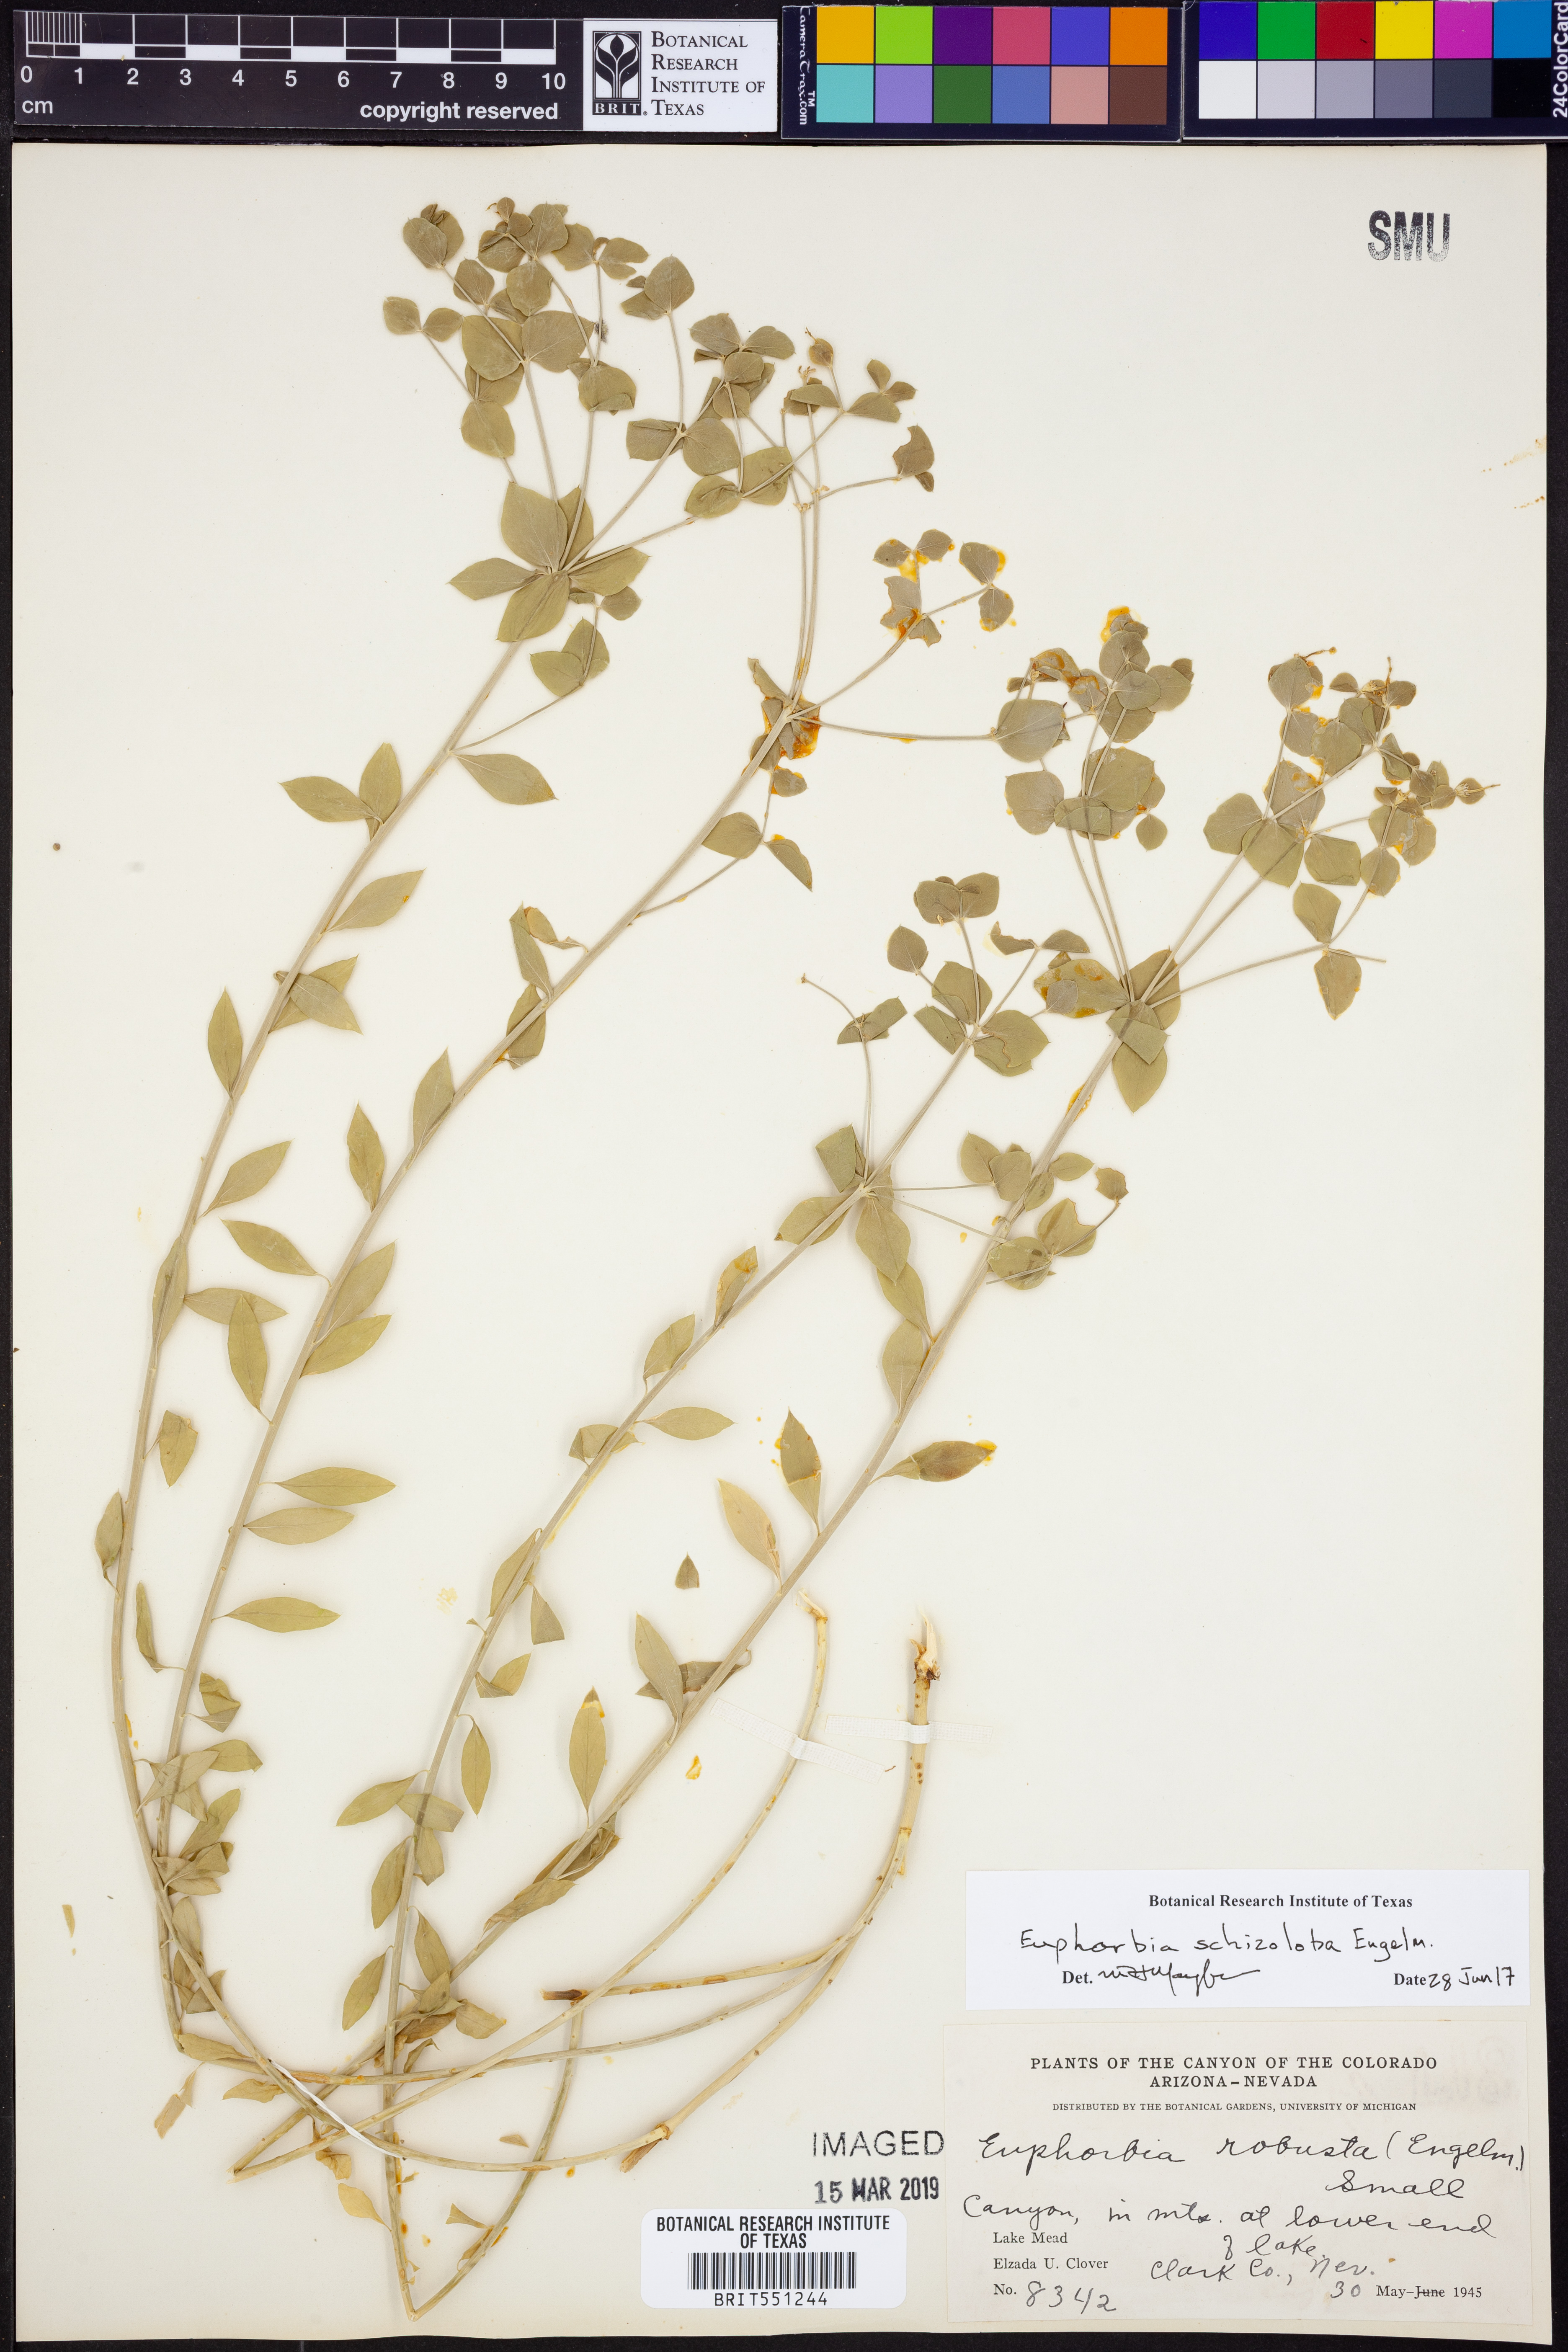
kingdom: Plantae
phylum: Tracheophyta
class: Magnoliopsida
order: Malpighiales
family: Euphorbiaceae
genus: Euphorbia
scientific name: Euphorbia schizoloba
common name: Mojave spurge
